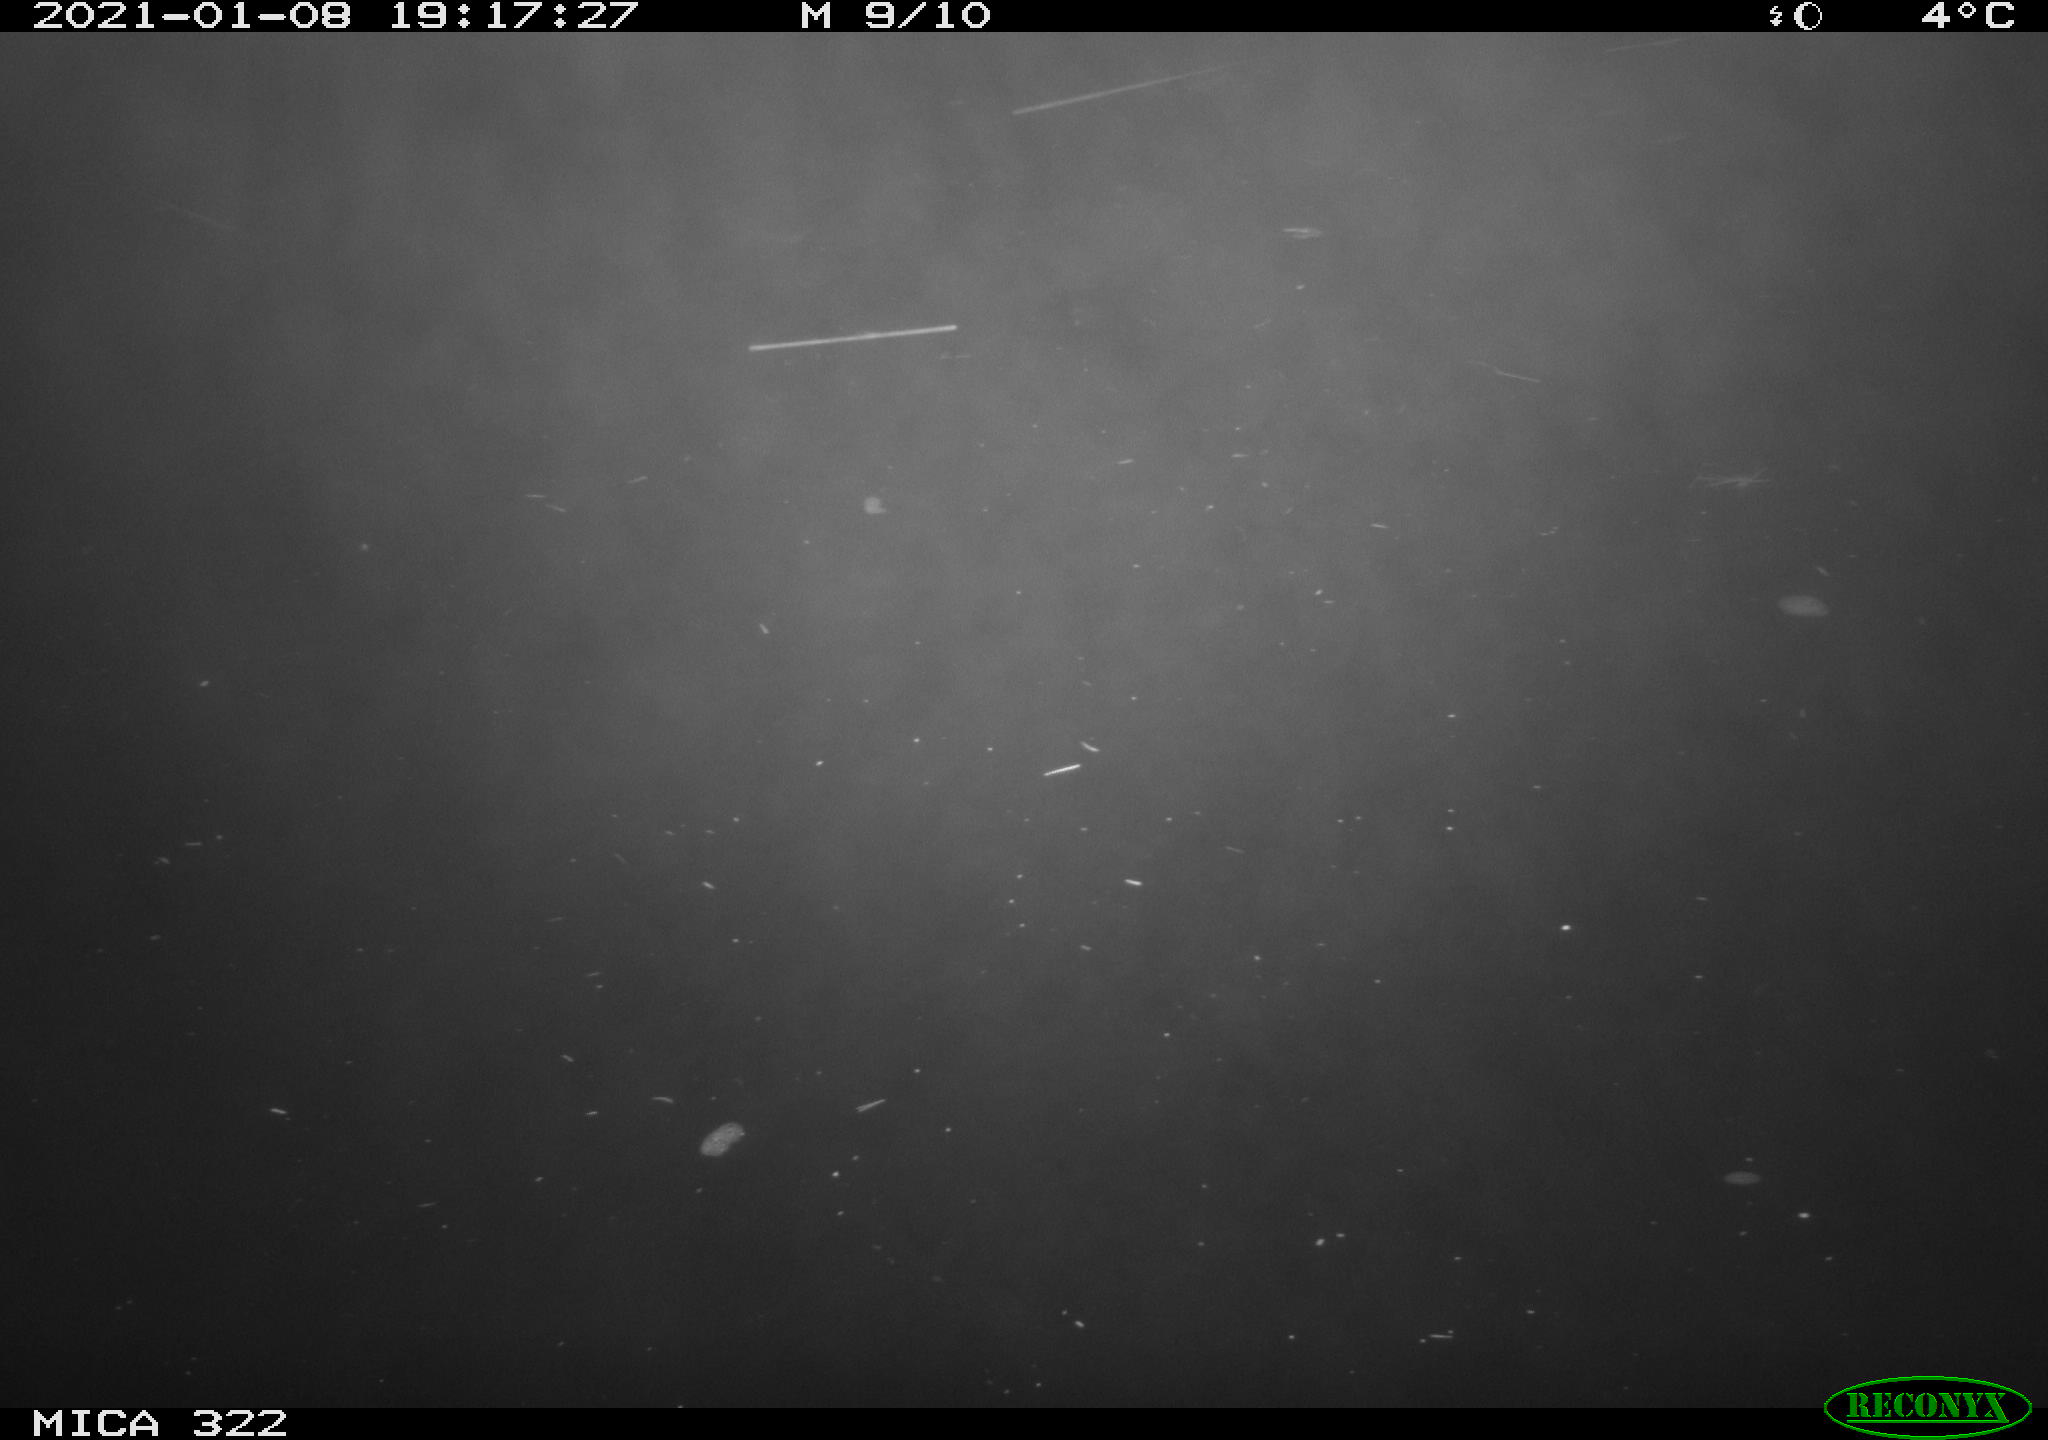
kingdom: Animalia
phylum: Chordata
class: Mammalia
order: Rodentia
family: Muridae
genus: Rattus
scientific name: Rattus norvegicus
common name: Brown rat
